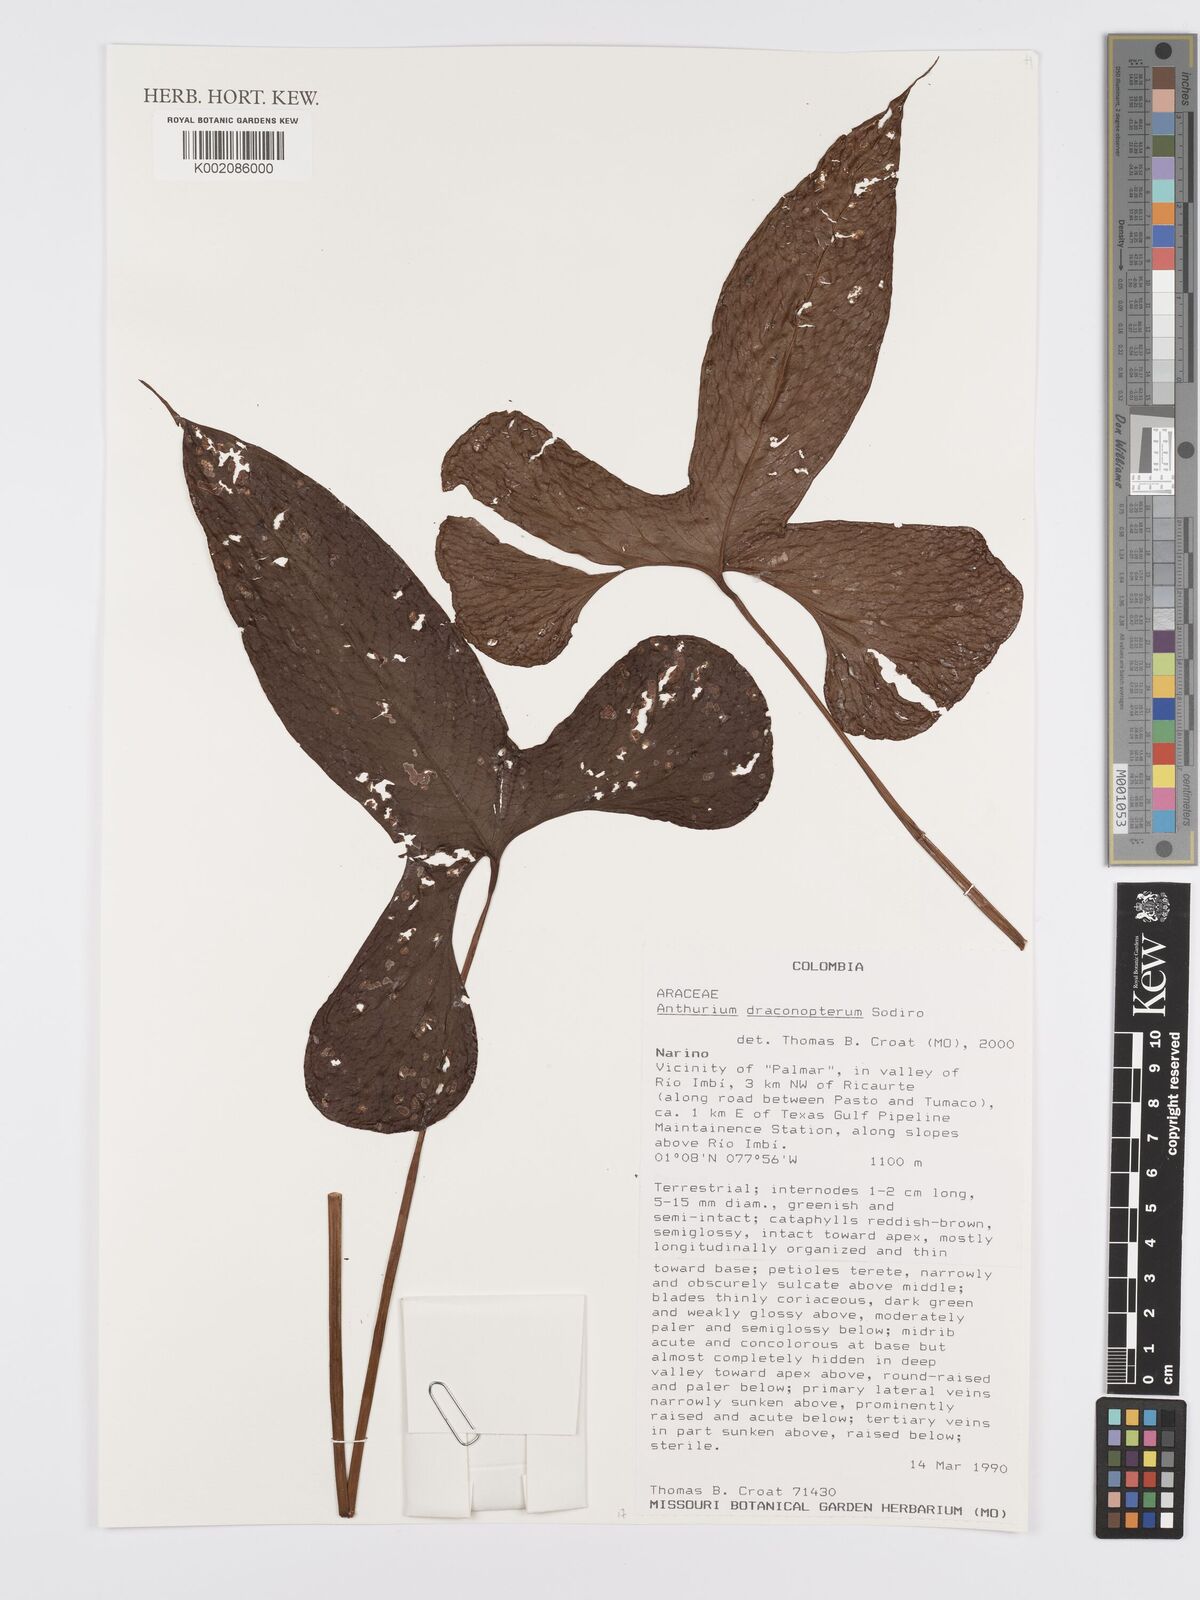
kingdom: Plantae
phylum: Tracheophyta
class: Liliopsida
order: Alismatales
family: Araceae
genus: Anthurium
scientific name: Anthurium draconopterum
